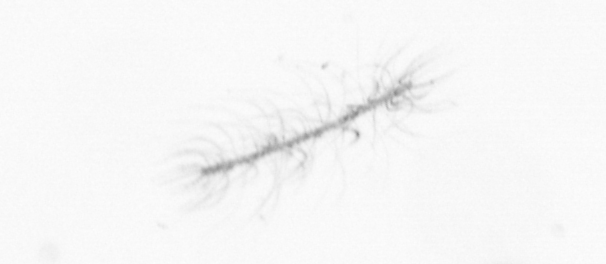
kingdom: Chromista
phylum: Ochrophyta
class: Bacillariophyceae
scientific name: Bacillariophyceae
